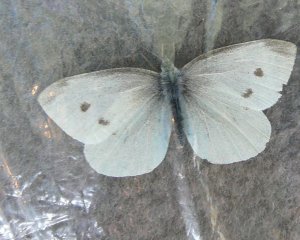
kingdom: Animalia
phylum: Arthropoda
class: Insecta
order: Lepidoptera
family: Pieridae
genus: Pieris
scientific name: Pieris rapae
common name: Cabbage White
